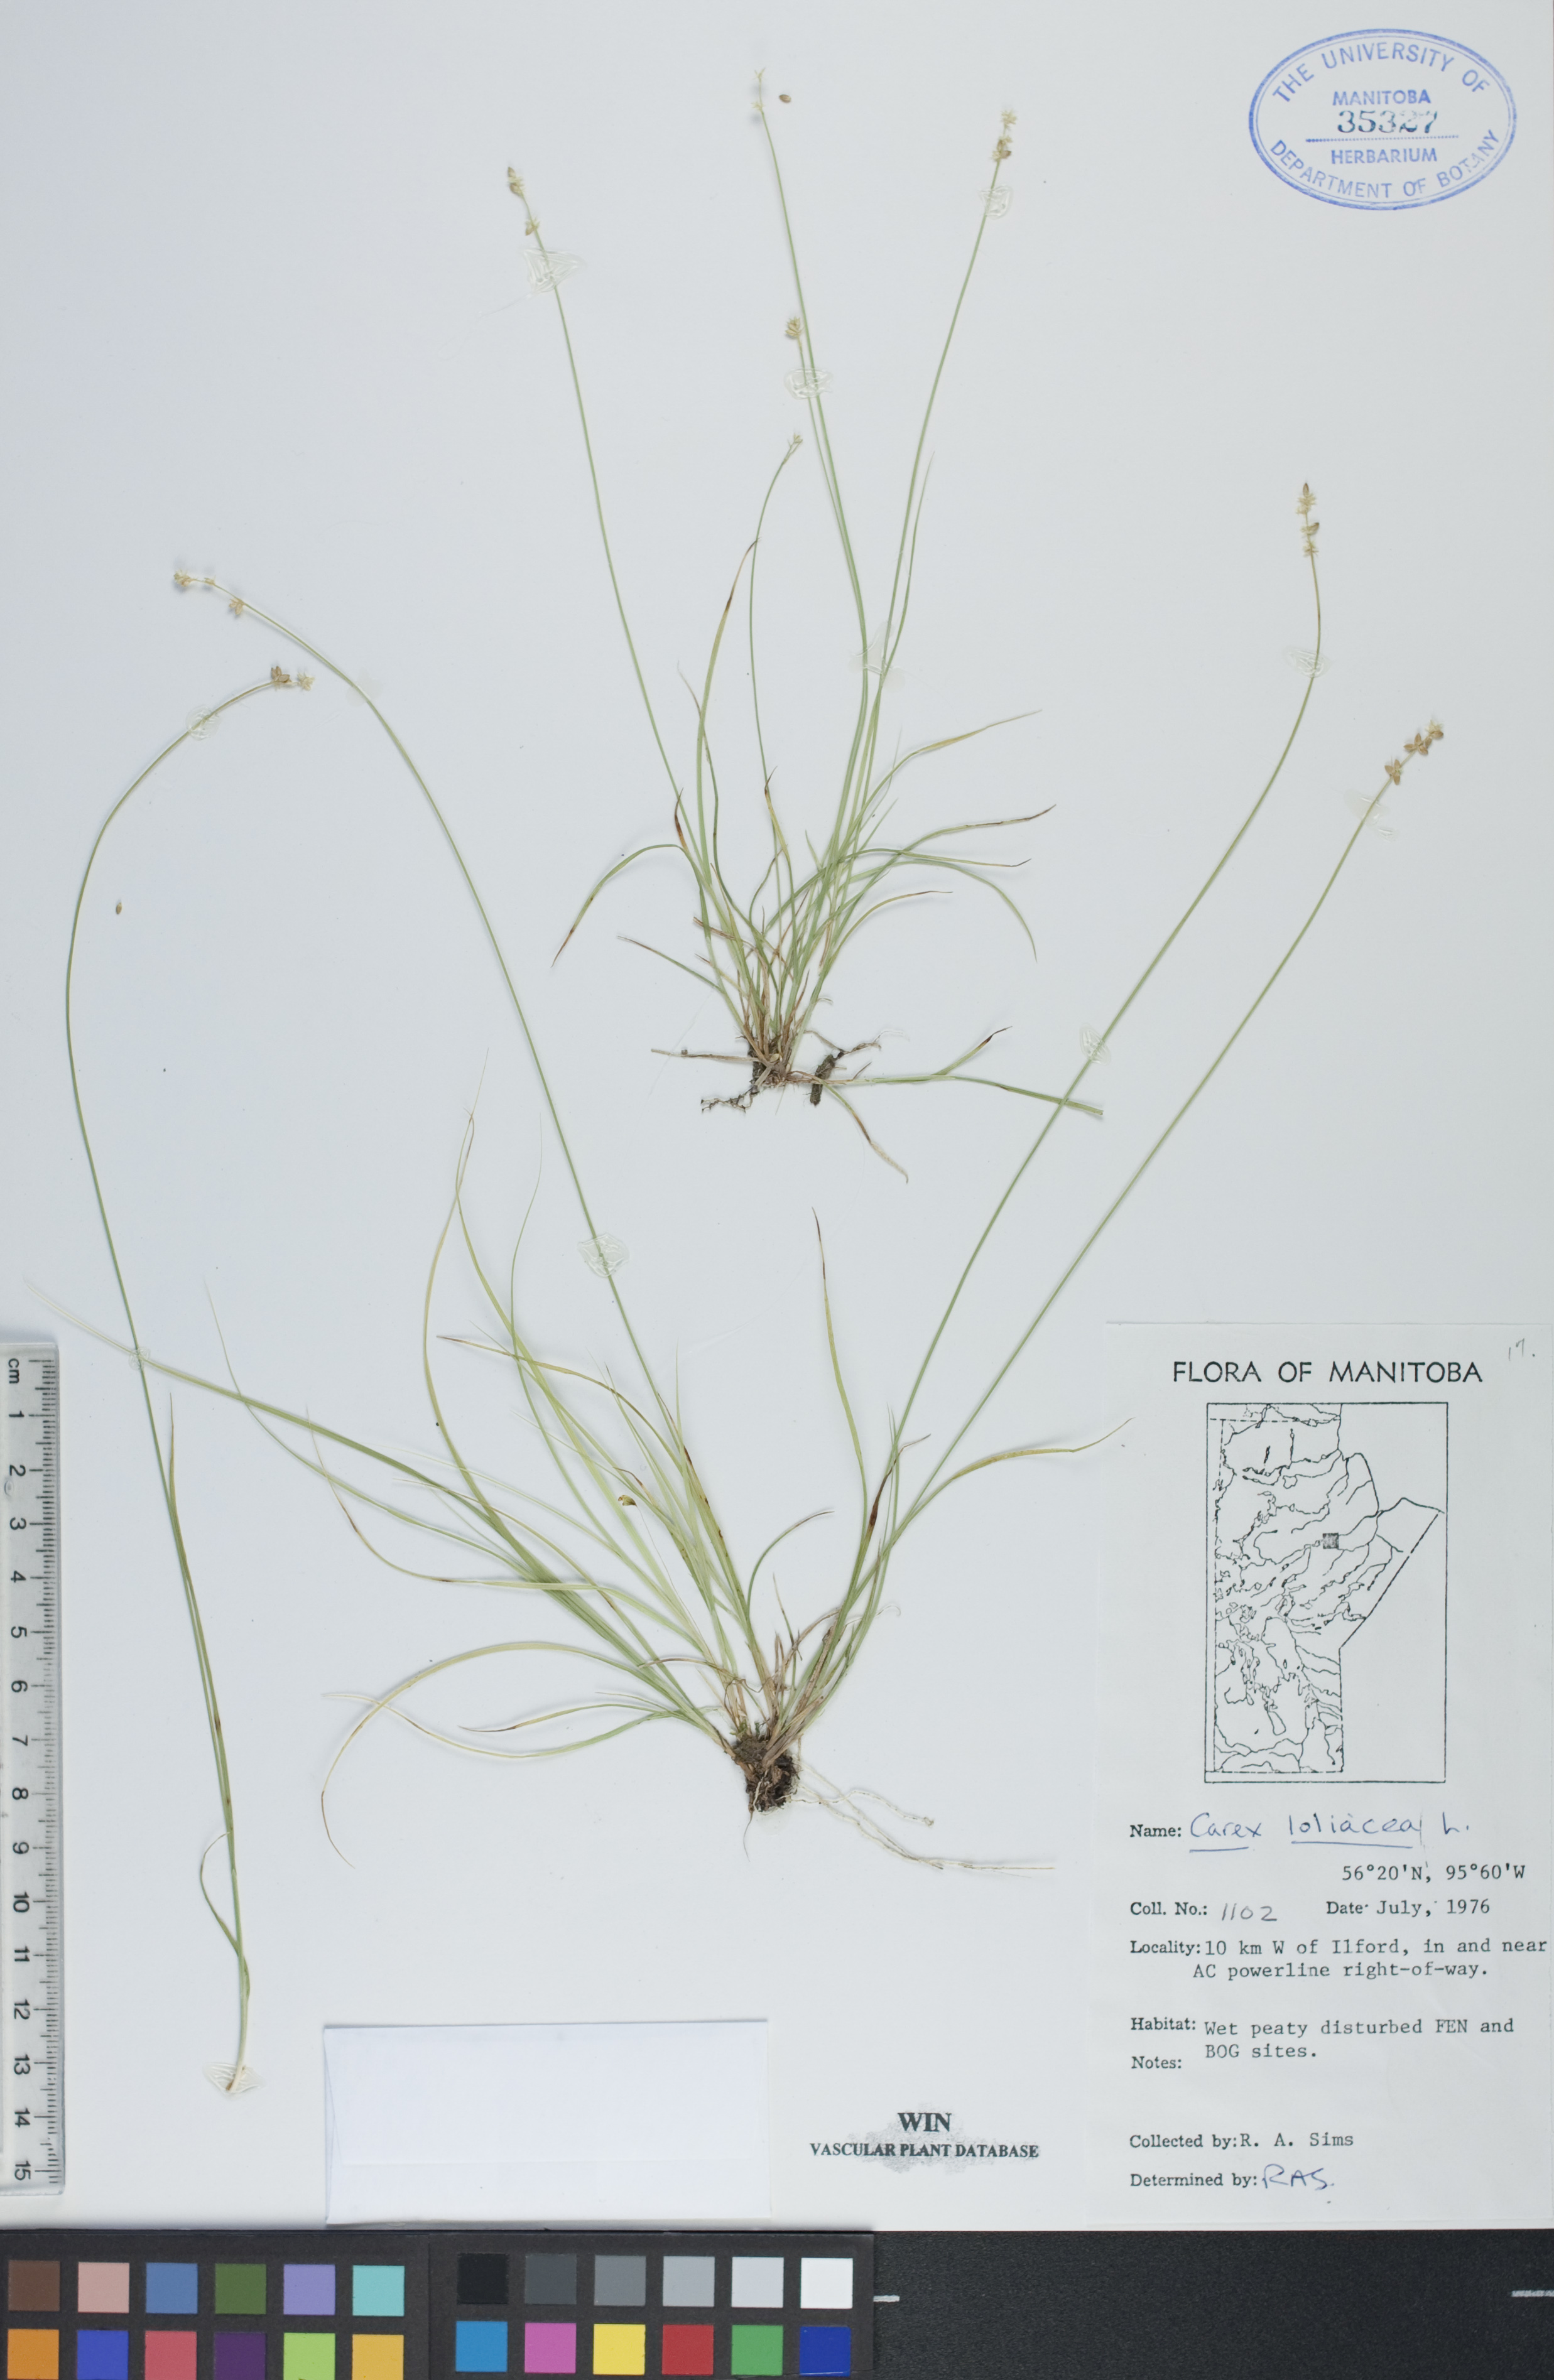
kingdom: Plantae
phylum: Tracheophyta
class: Liliopsida
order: Poales
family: Cyperaceae
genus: Carex
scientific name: Carex loliacea
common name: Ryegrass sedge
